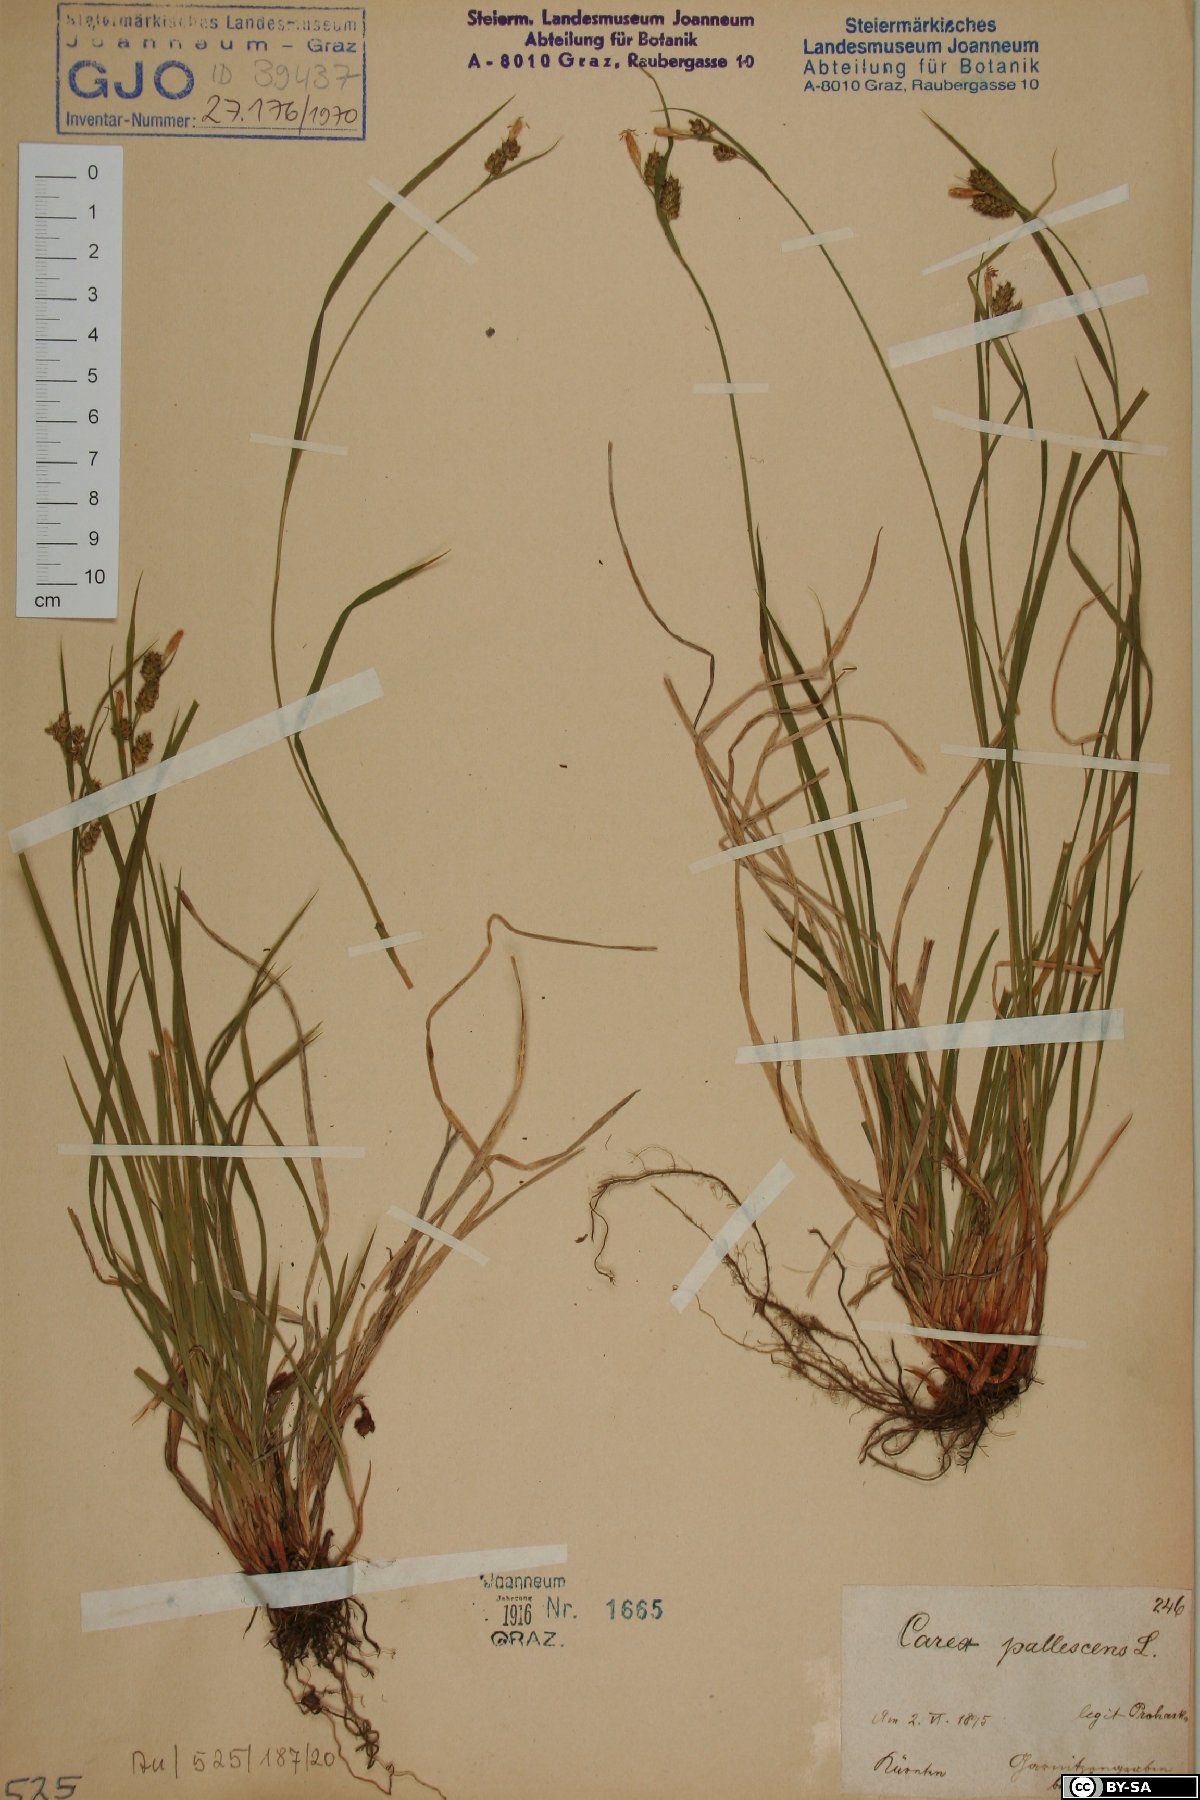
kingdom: Plantae
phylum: Tracheophyta
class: Liliopsida
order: Poales
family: Cyperaceae
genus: Carex
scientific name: Carex pallescens
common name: Pale sedge
